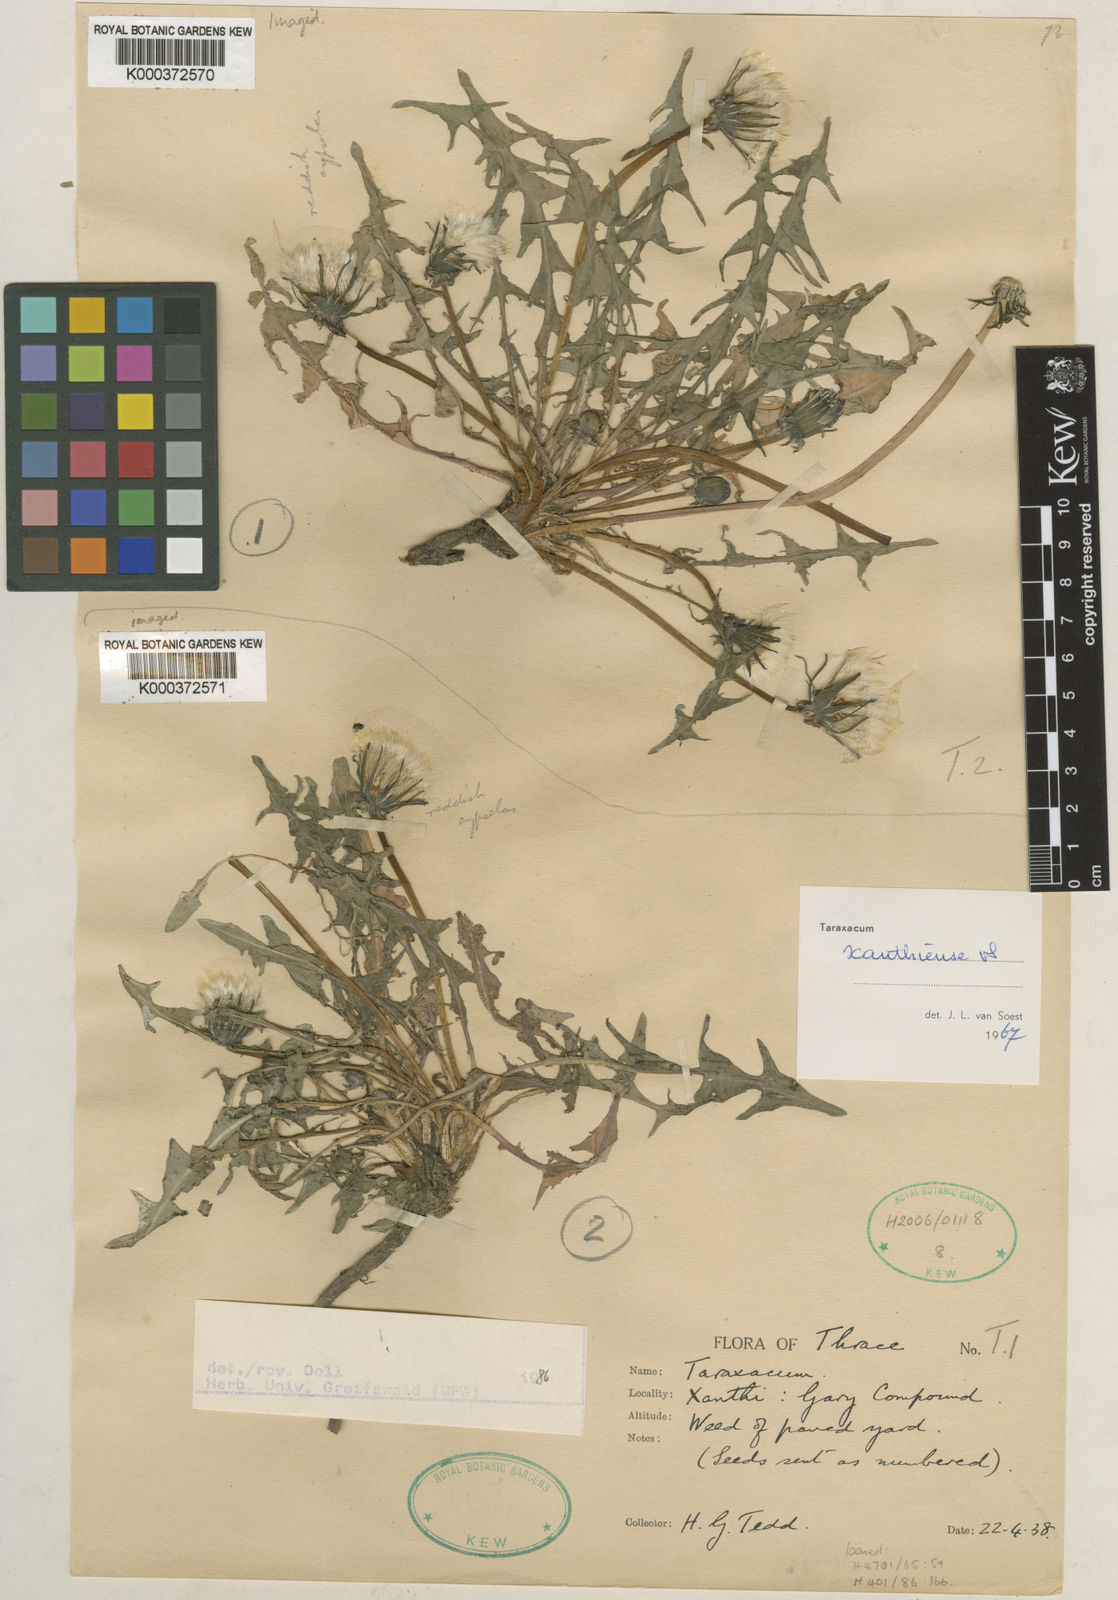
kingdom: Plantae
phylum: Tracheophyta
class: Magnoliopsida
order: Asterales
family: Asteraceae
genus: Taraxacum
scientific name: Taraxacum xanthiense
